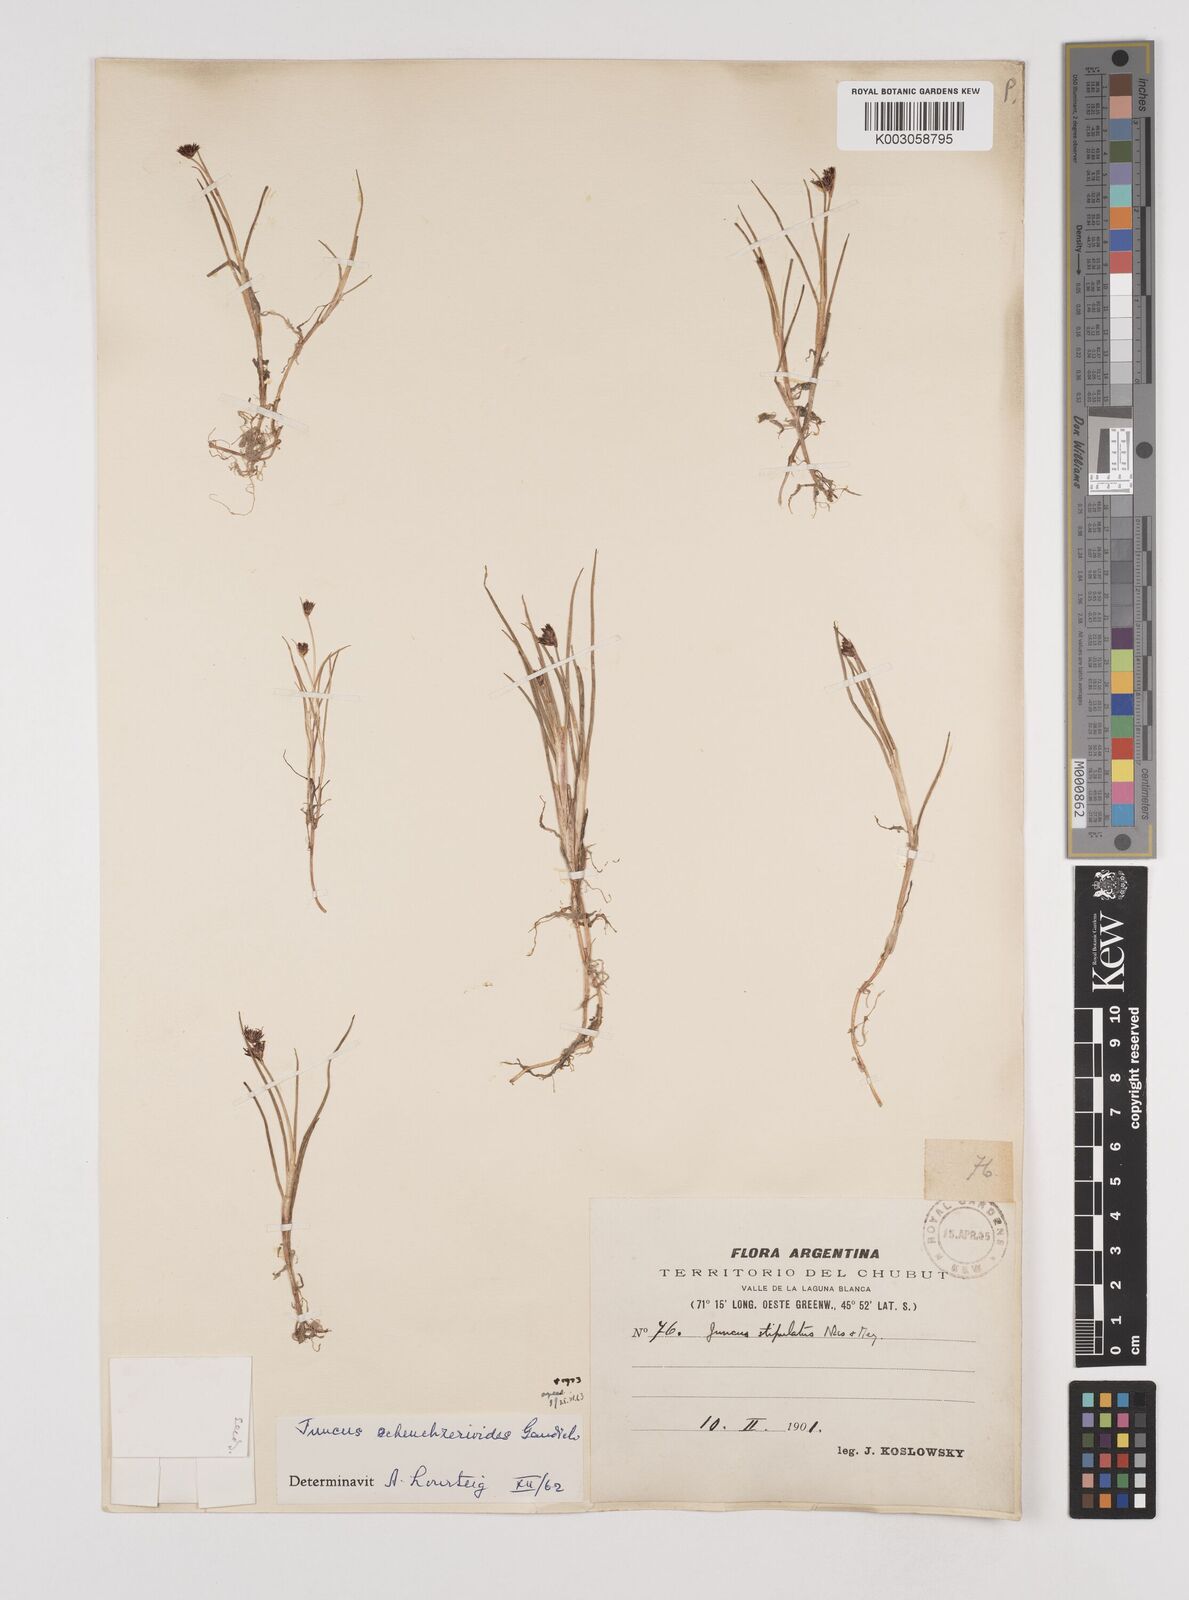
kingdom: Plantae
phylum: Tracheophyta
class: Liliopsida
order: Poales
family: Juncaceae
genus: Juncus
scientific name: Juncus scheuchzerioides
